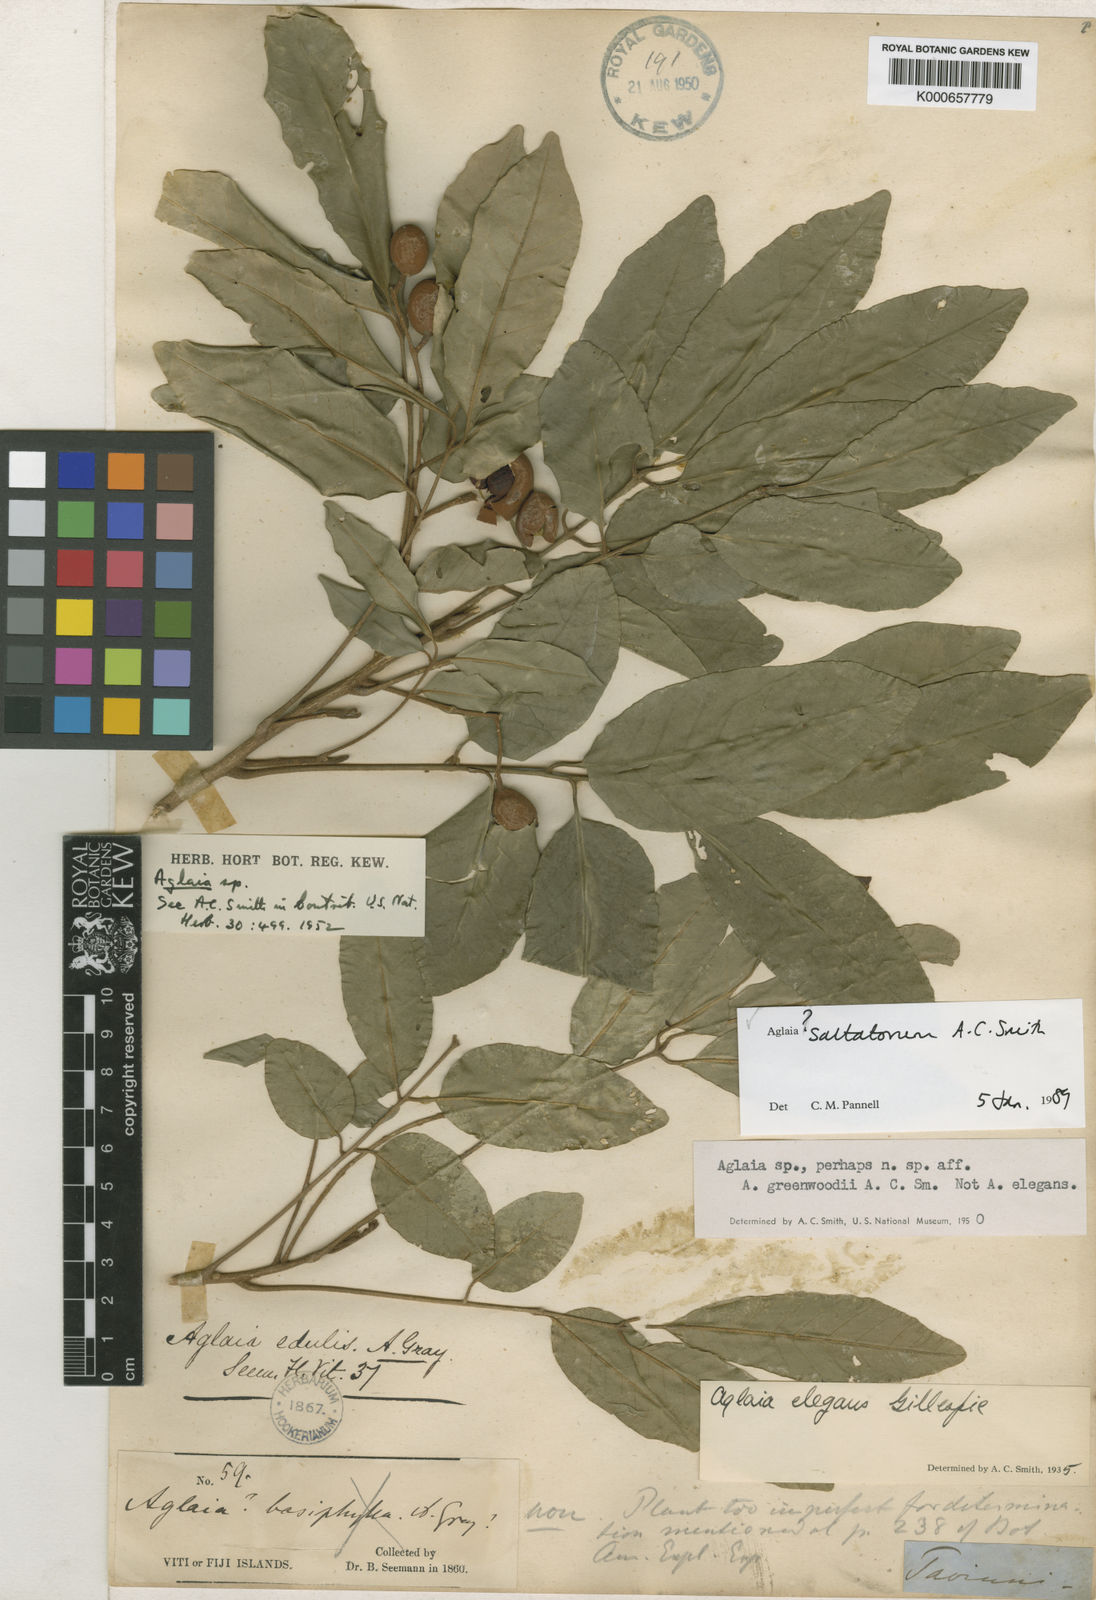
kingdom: Plantae
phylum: Tracheophyta
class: Magnoliopsida
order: Sapindales
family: Meliaceae
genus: Aglaia
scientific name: Aglaia saltatorum
